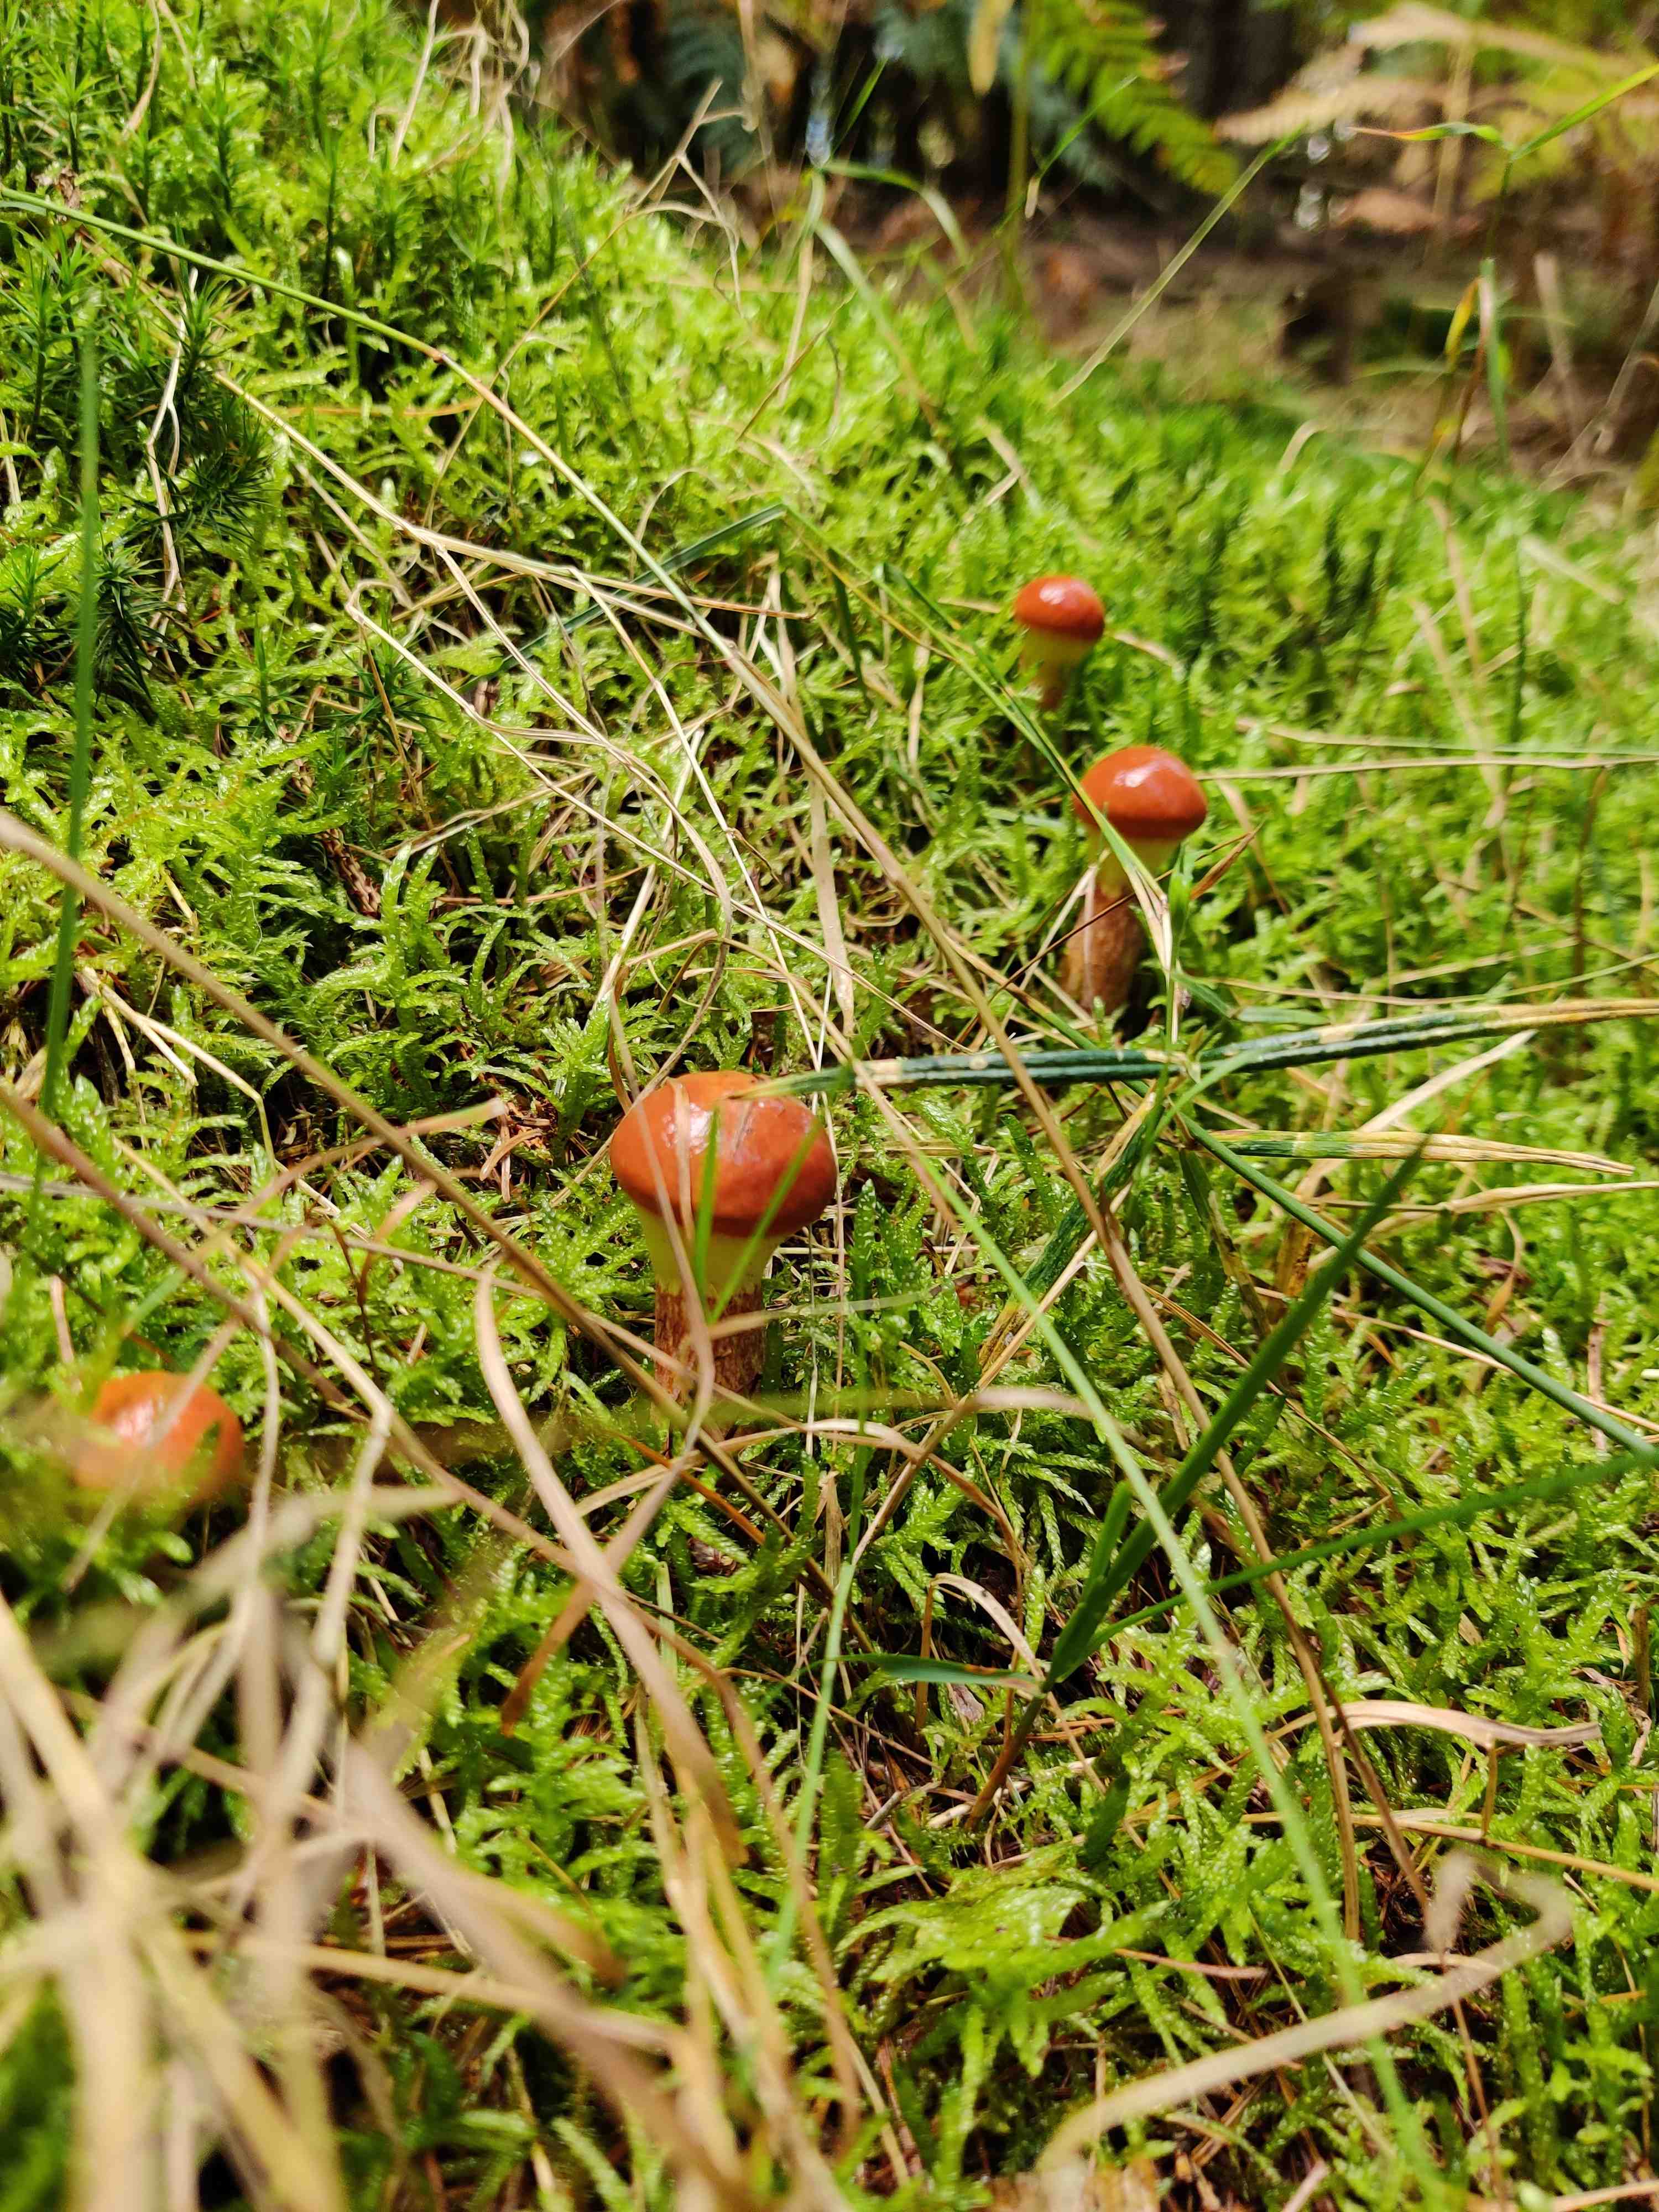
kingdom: Fungi
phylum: Basidiomycota
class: Agaricomycetes
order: Boletales
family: Suillaceae
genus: Suillus
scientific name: Suillus grevillei
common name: lærke-slimrørhat
